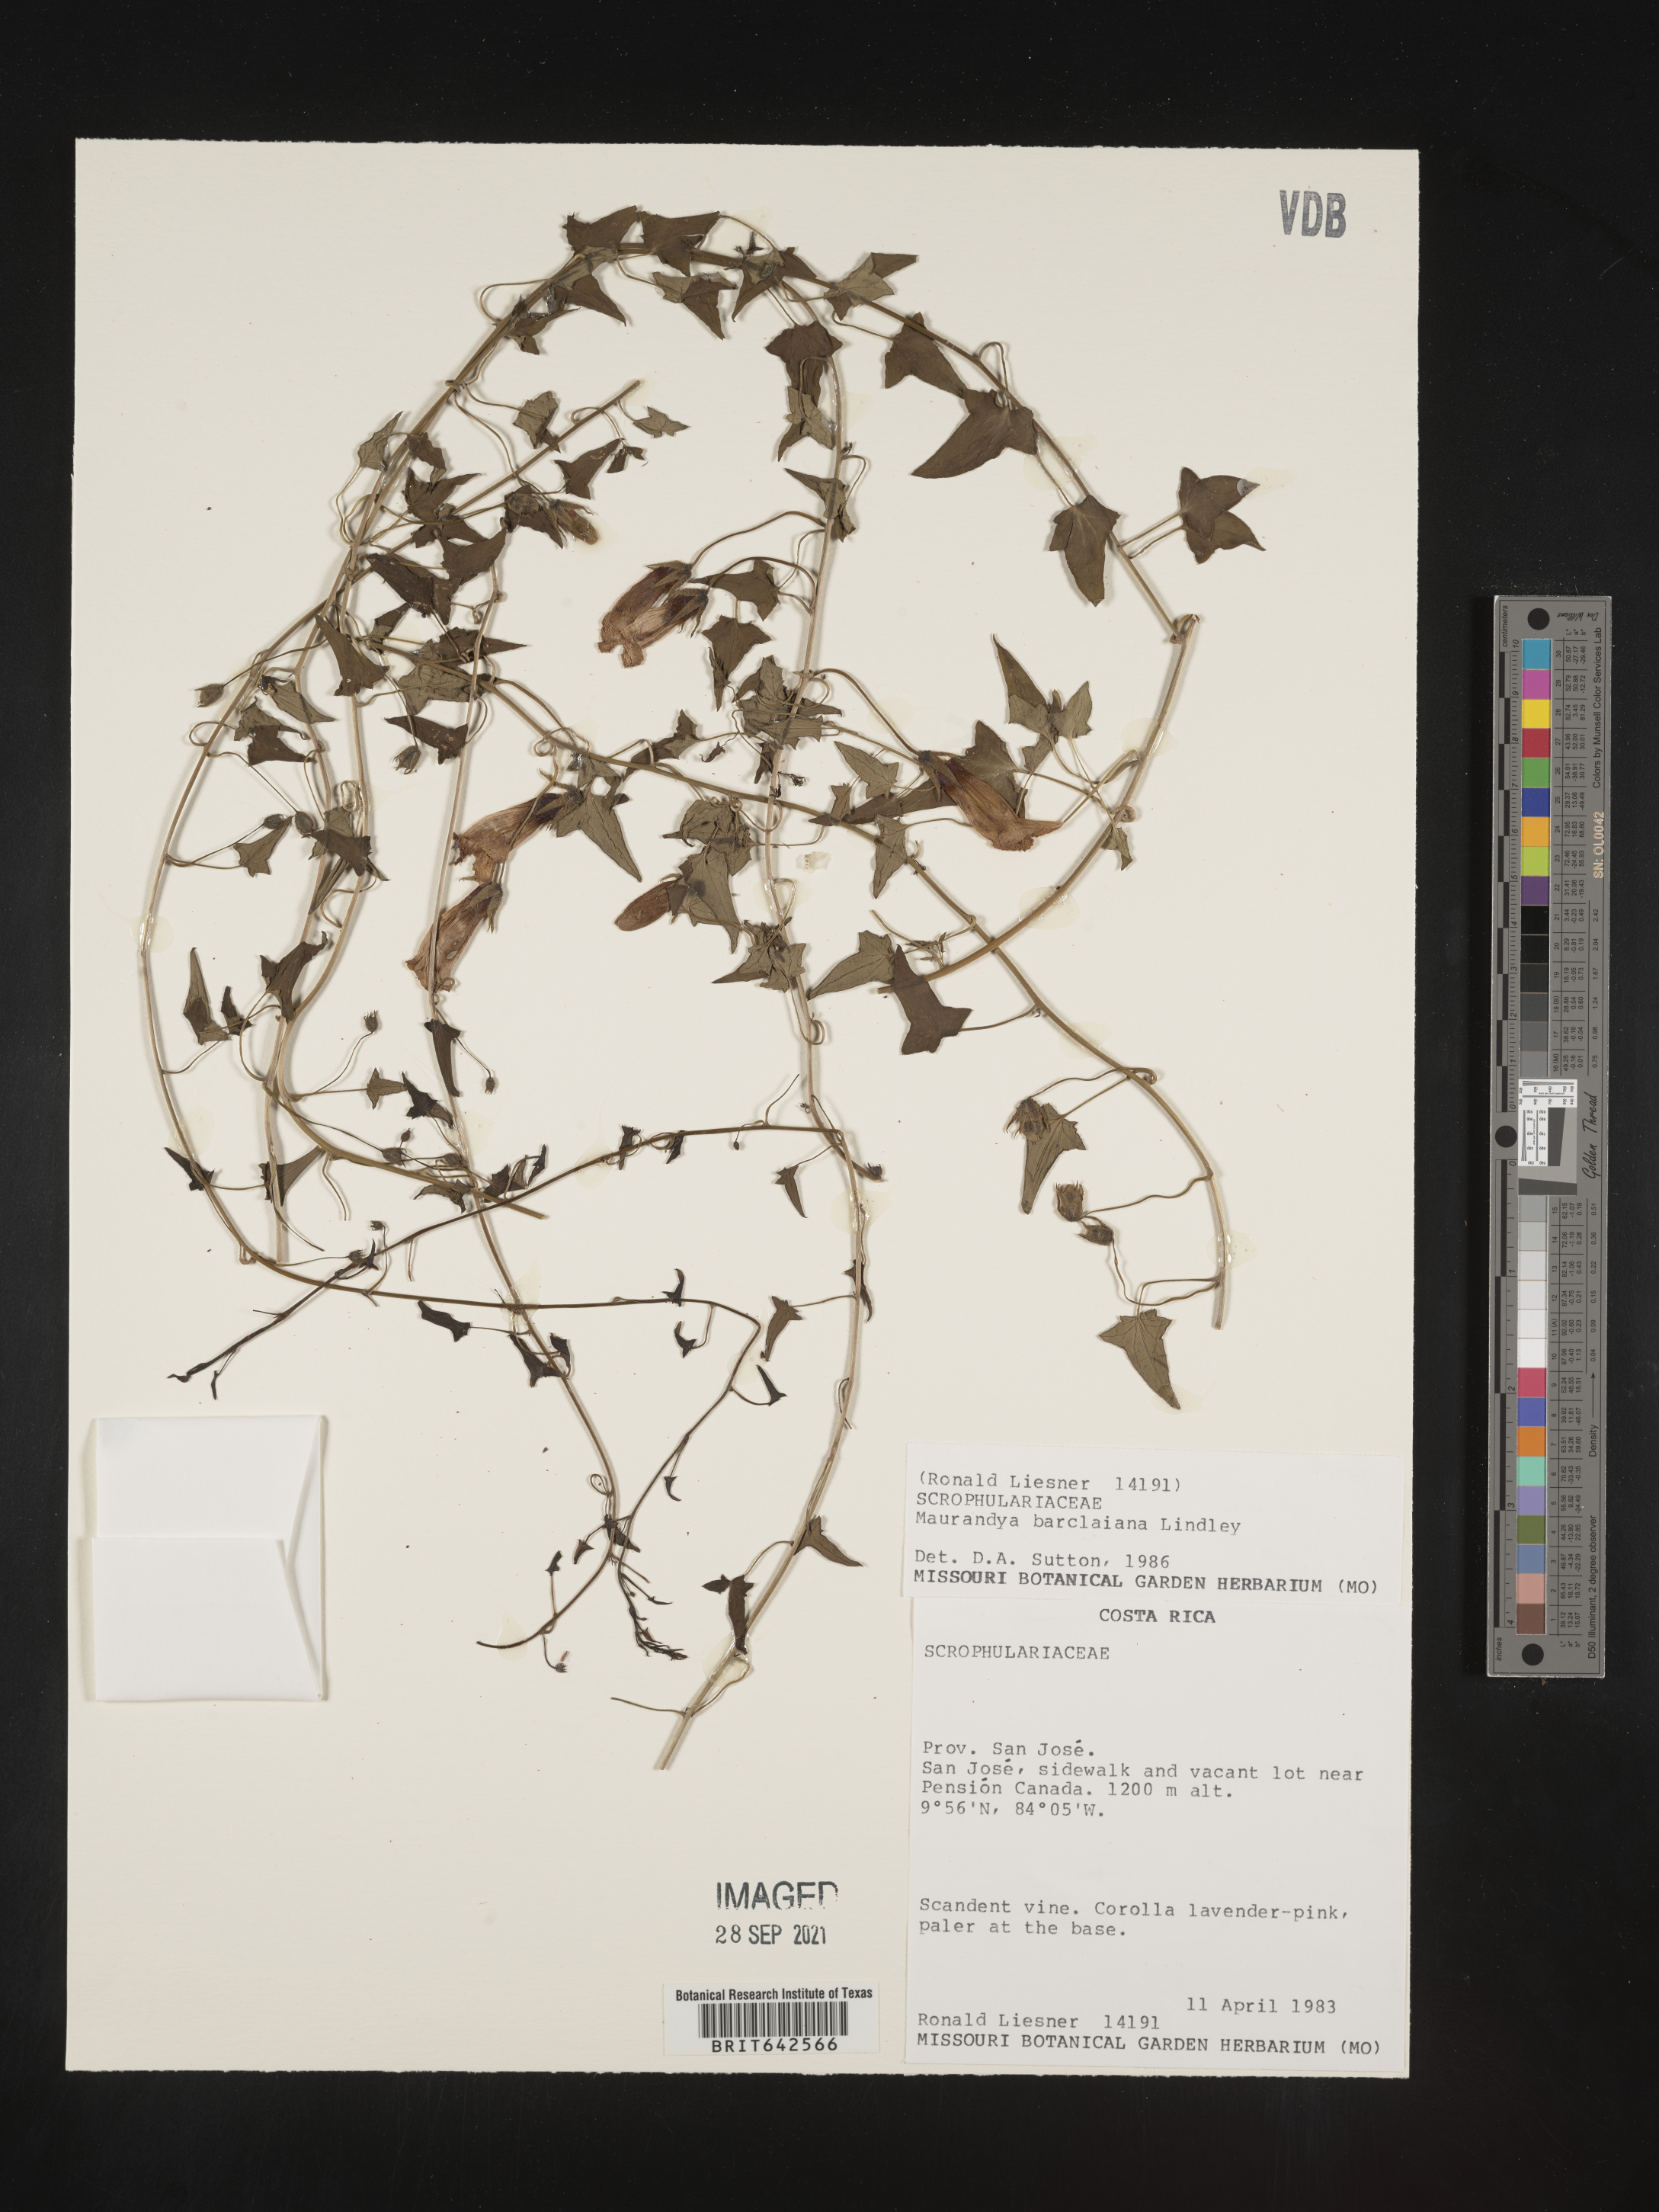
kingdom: Plantae
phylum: Tracheophyta
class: Magnoliopsida
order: Lamiales
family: Plantaginaceae
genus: Maurandya
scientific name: Maurandya
